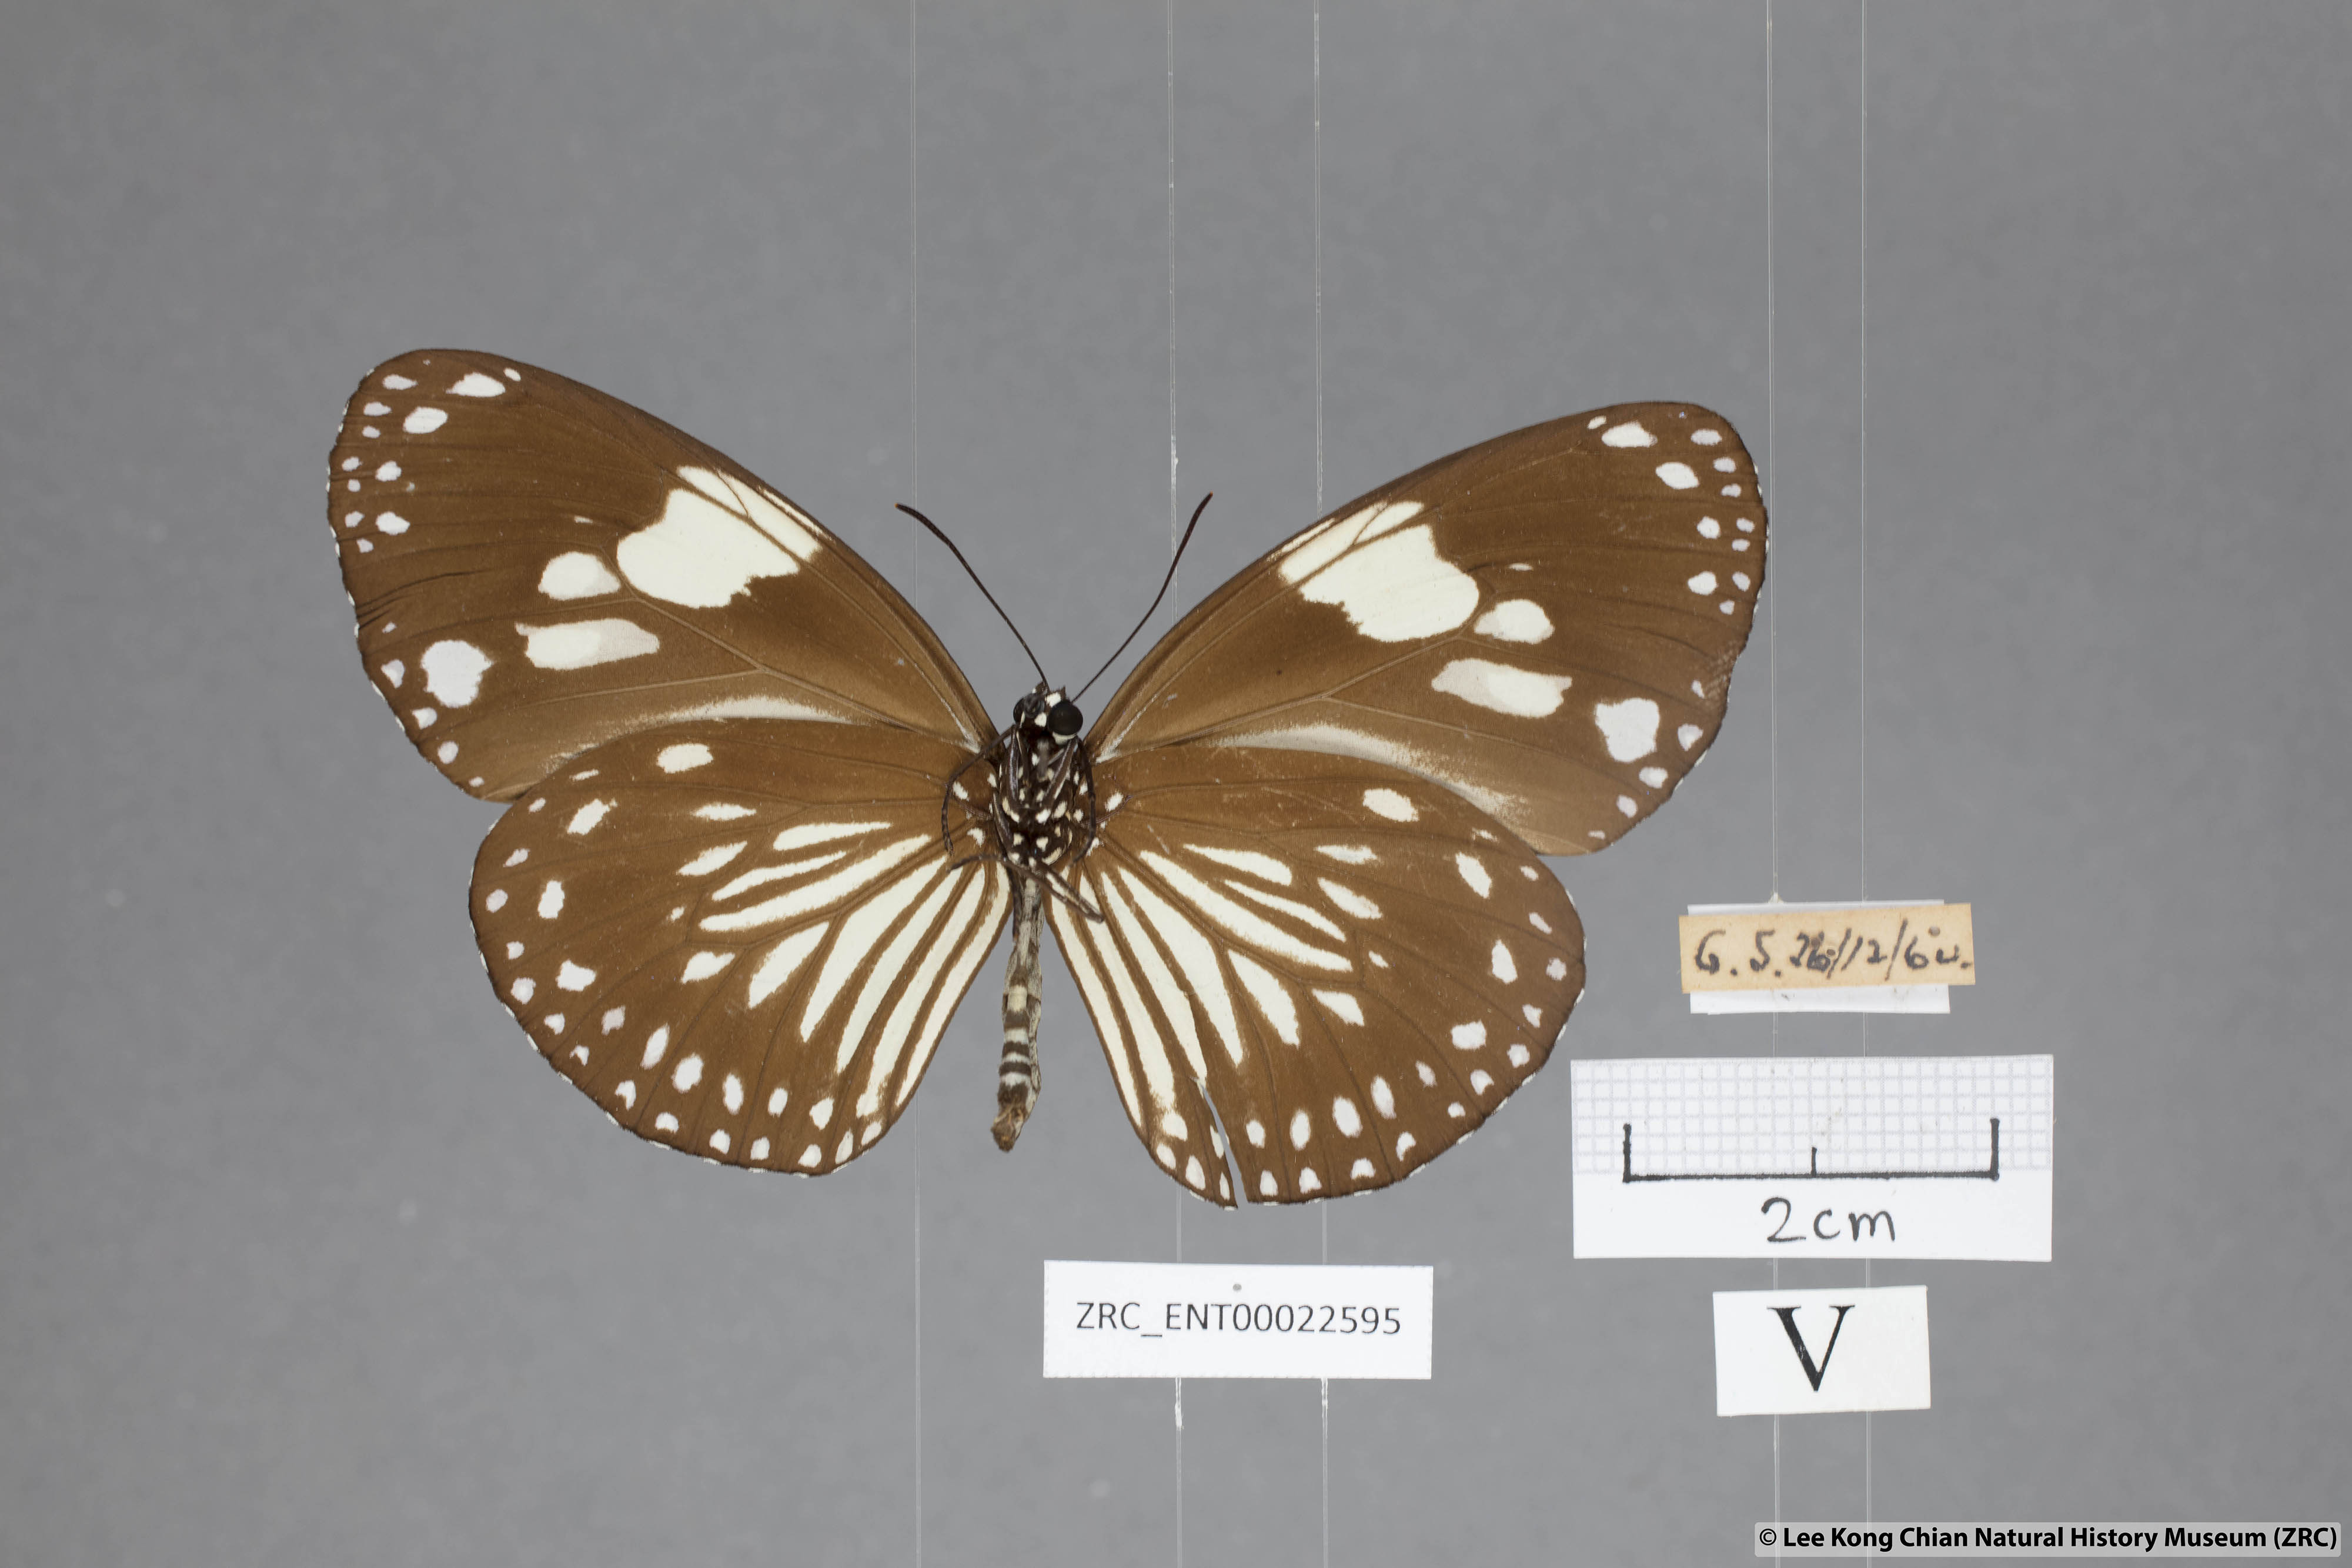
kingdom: Animalia
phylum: Arthropoda
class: Insecta
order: Lepidoptera
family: Nymphalidae
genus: Euploea
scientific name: Euploea diocletia
